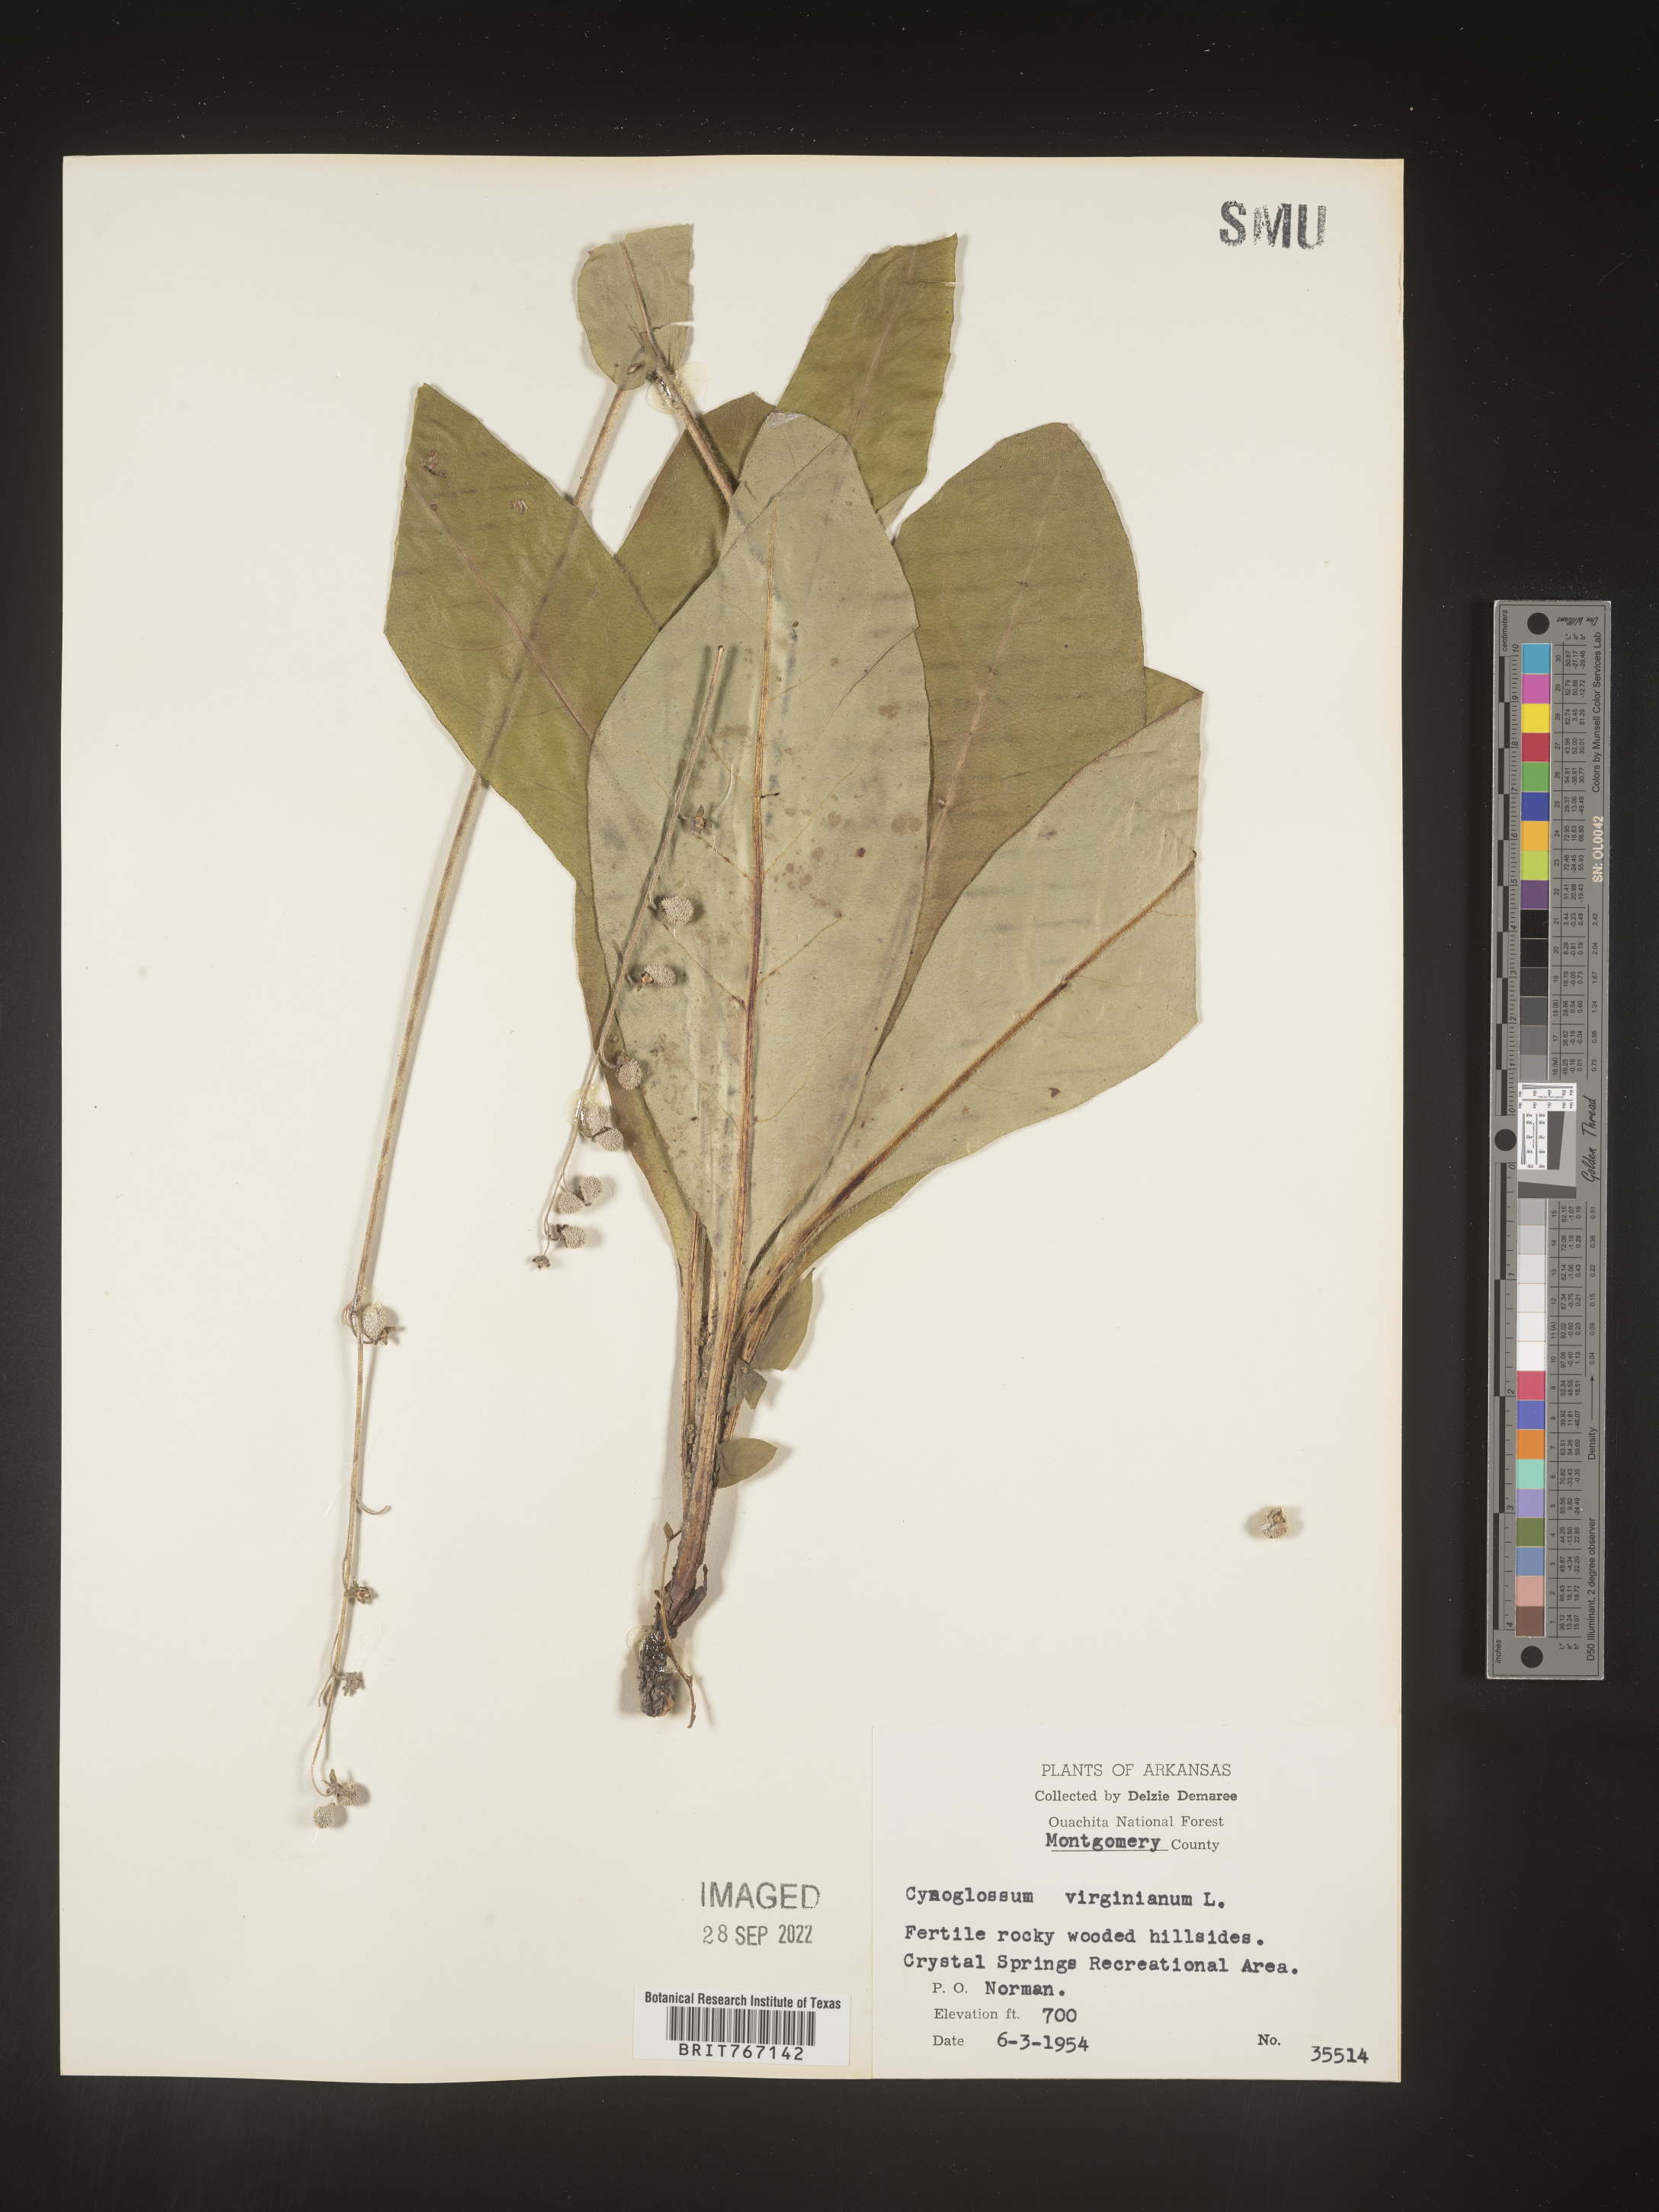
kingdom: Plantae
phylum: Tracheophyta
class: Magnoliopsida
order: Boraginales
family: Boraginaceae
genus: Andersonglossum
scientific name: Andersonglossum virginianum
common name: Wild comfrey
